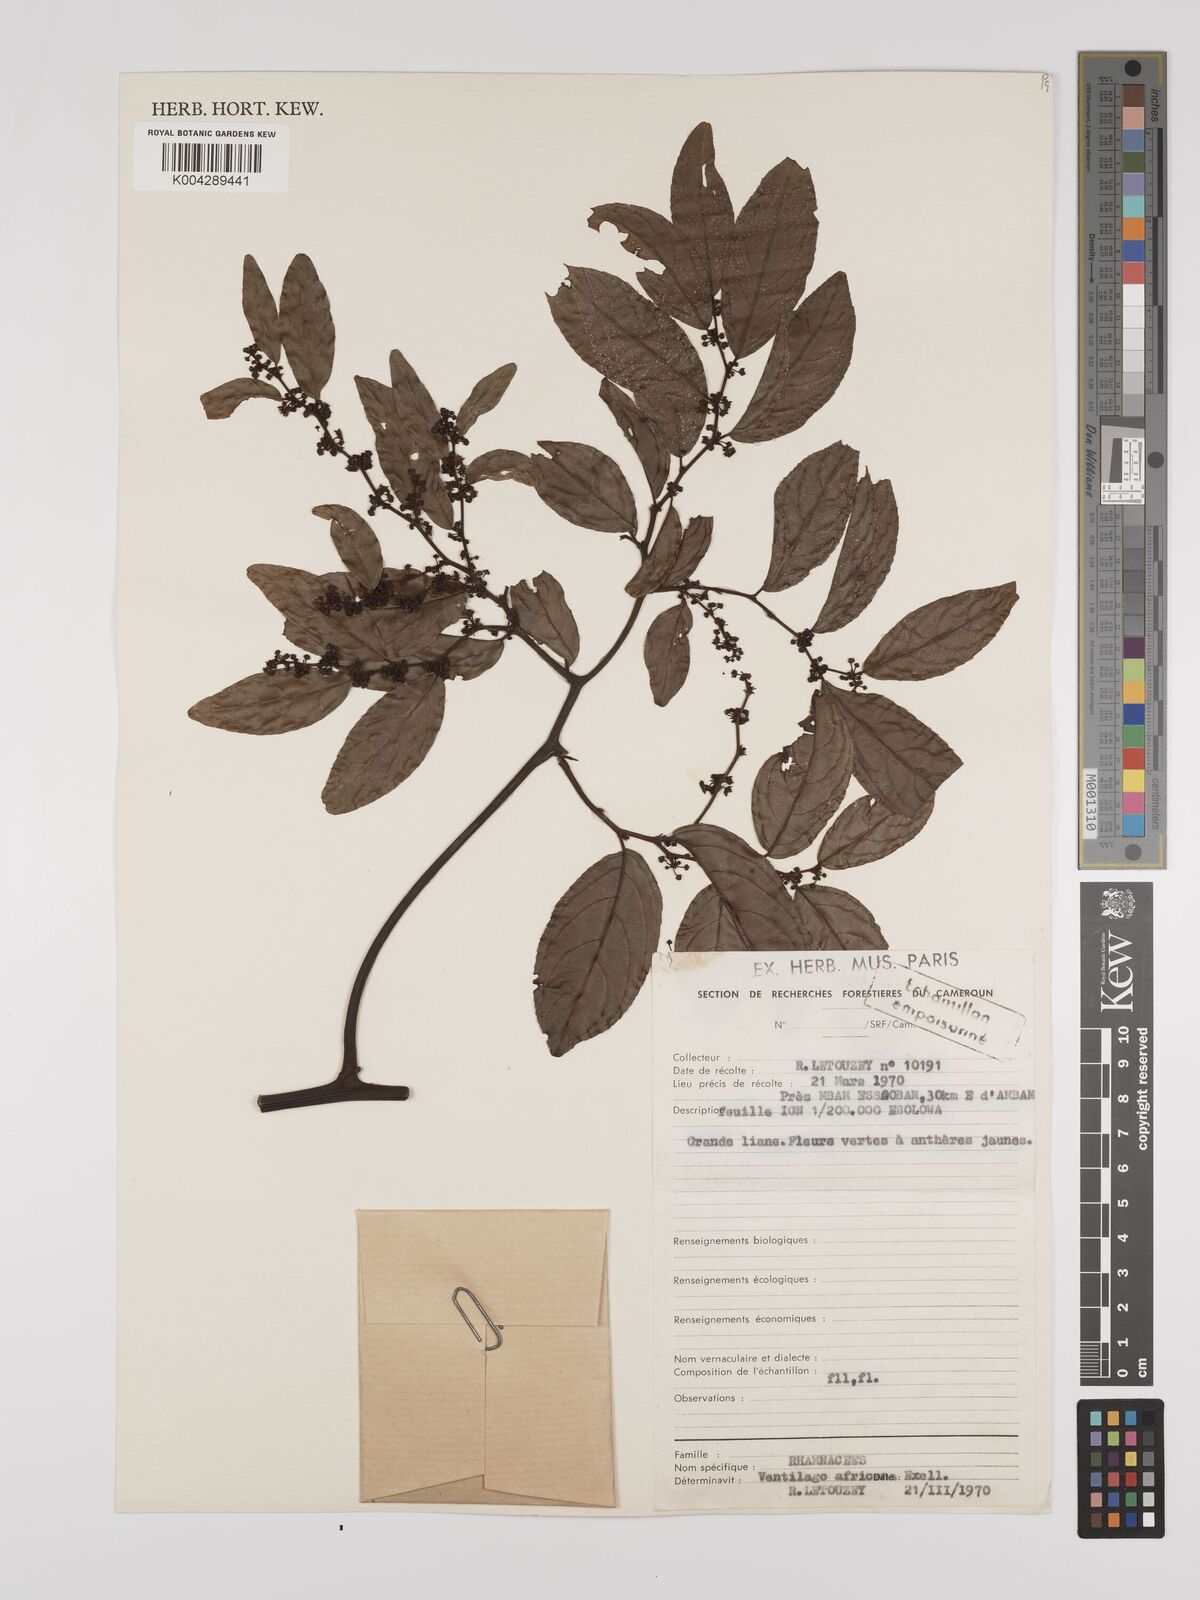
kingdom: Plantae
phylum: Tracheophyta
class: Magnoliopsida
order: Rosales
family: Rhamnaceae
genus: Ventilago
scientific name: Ventilago africana
